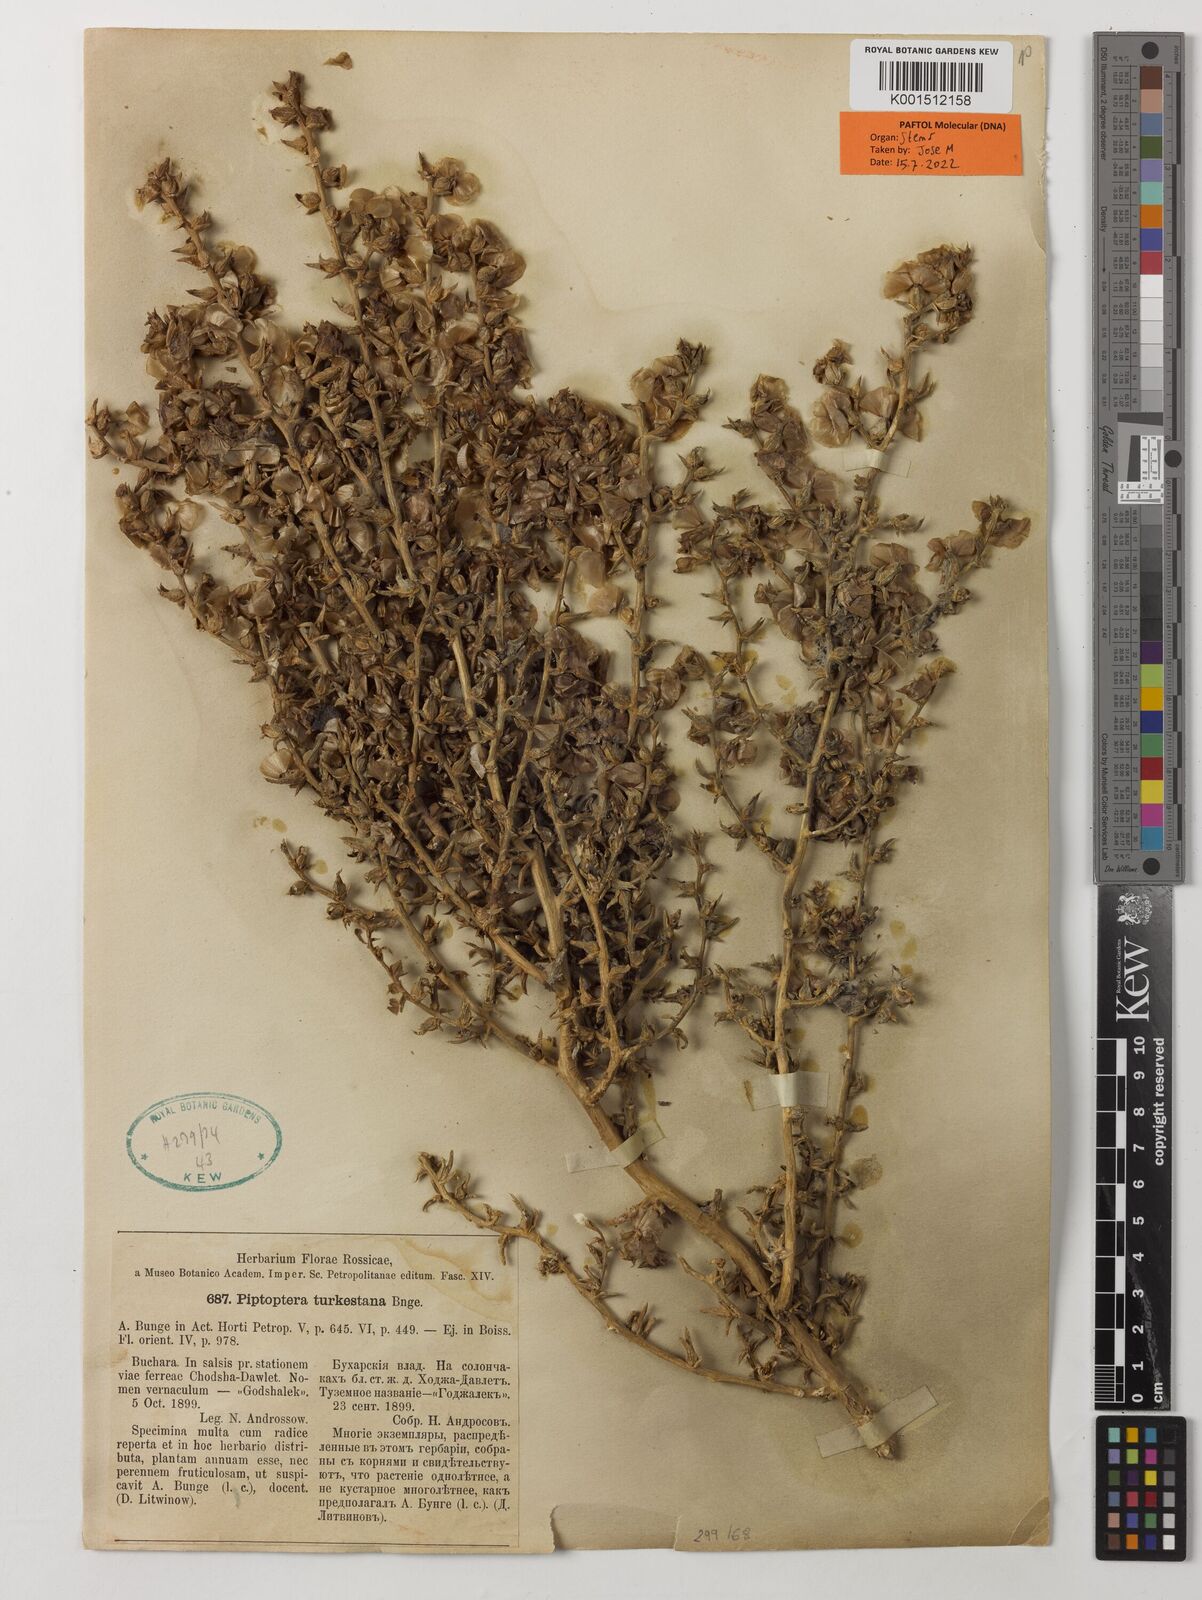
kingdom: Plantae
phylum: Tracheophyta
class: Magnoliopsida
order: Caryophyllales
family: Amaranthaceae
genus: Piptoptera
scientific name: Piptoptera turkestana
